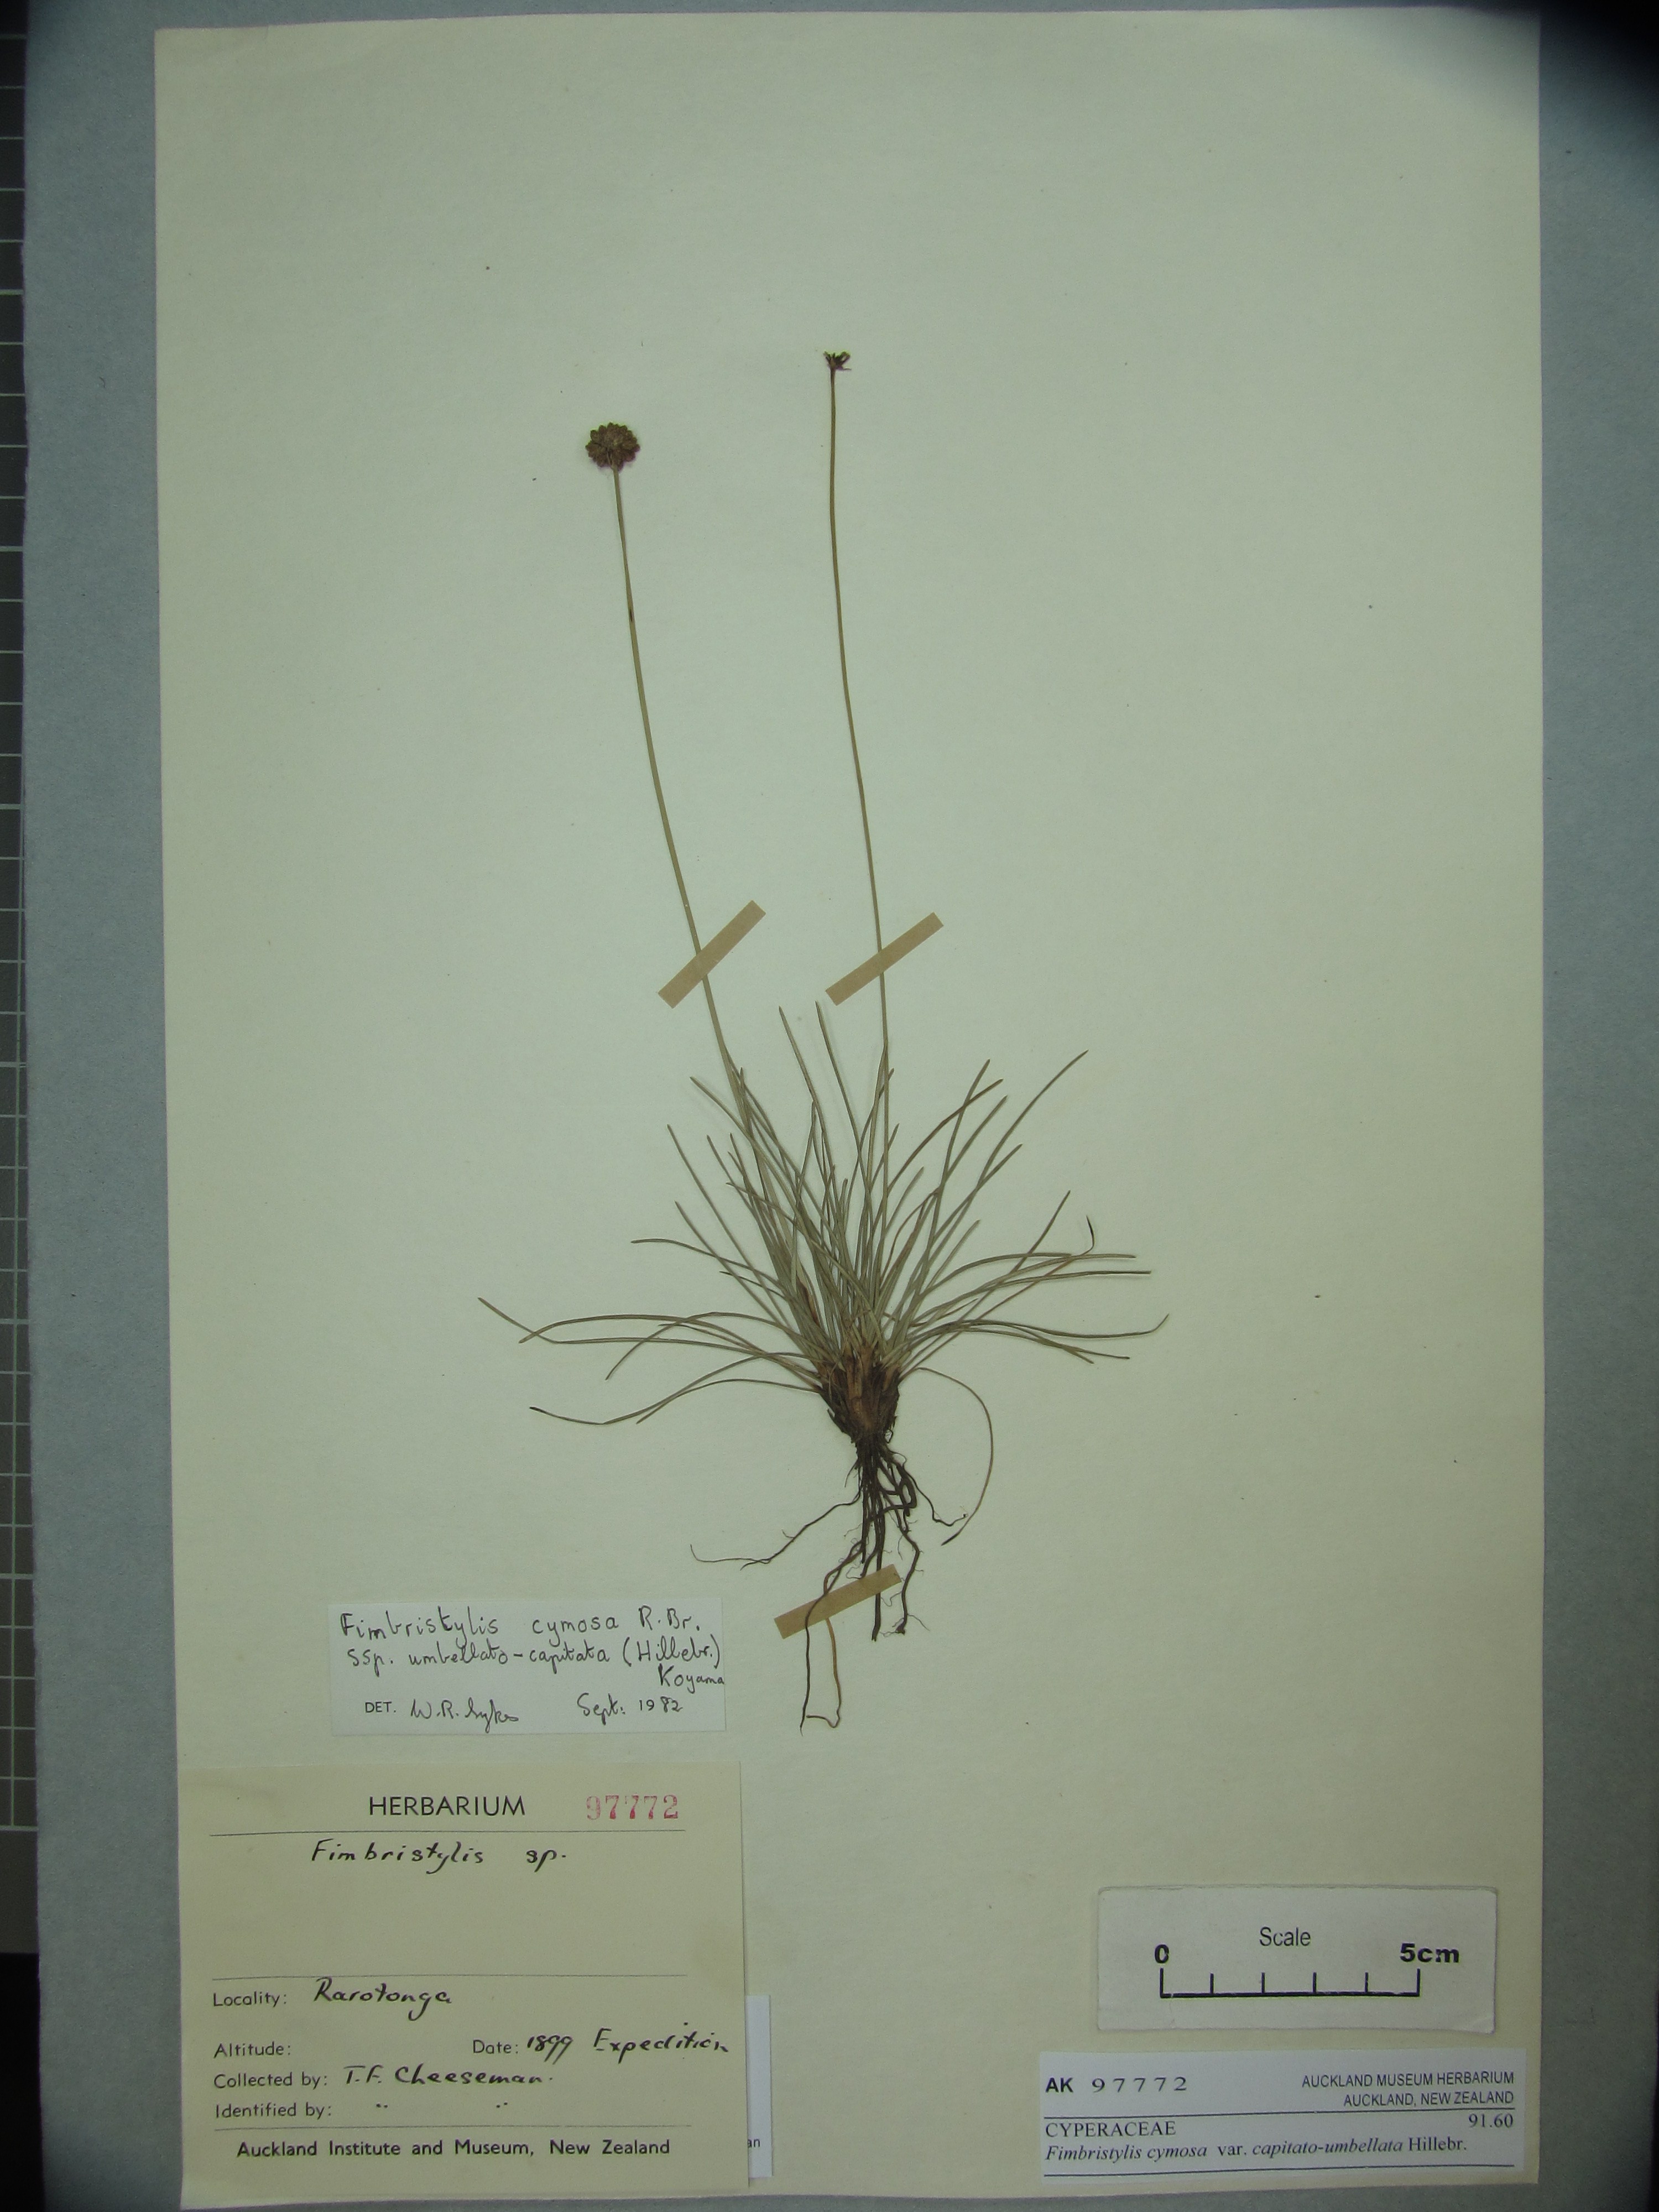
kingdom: Plantae
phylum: Tracheophyta
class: Liliopsida
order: Poales
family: Cyperaceae
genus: Fimbristylis
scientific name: Fimbristylis cymosa
